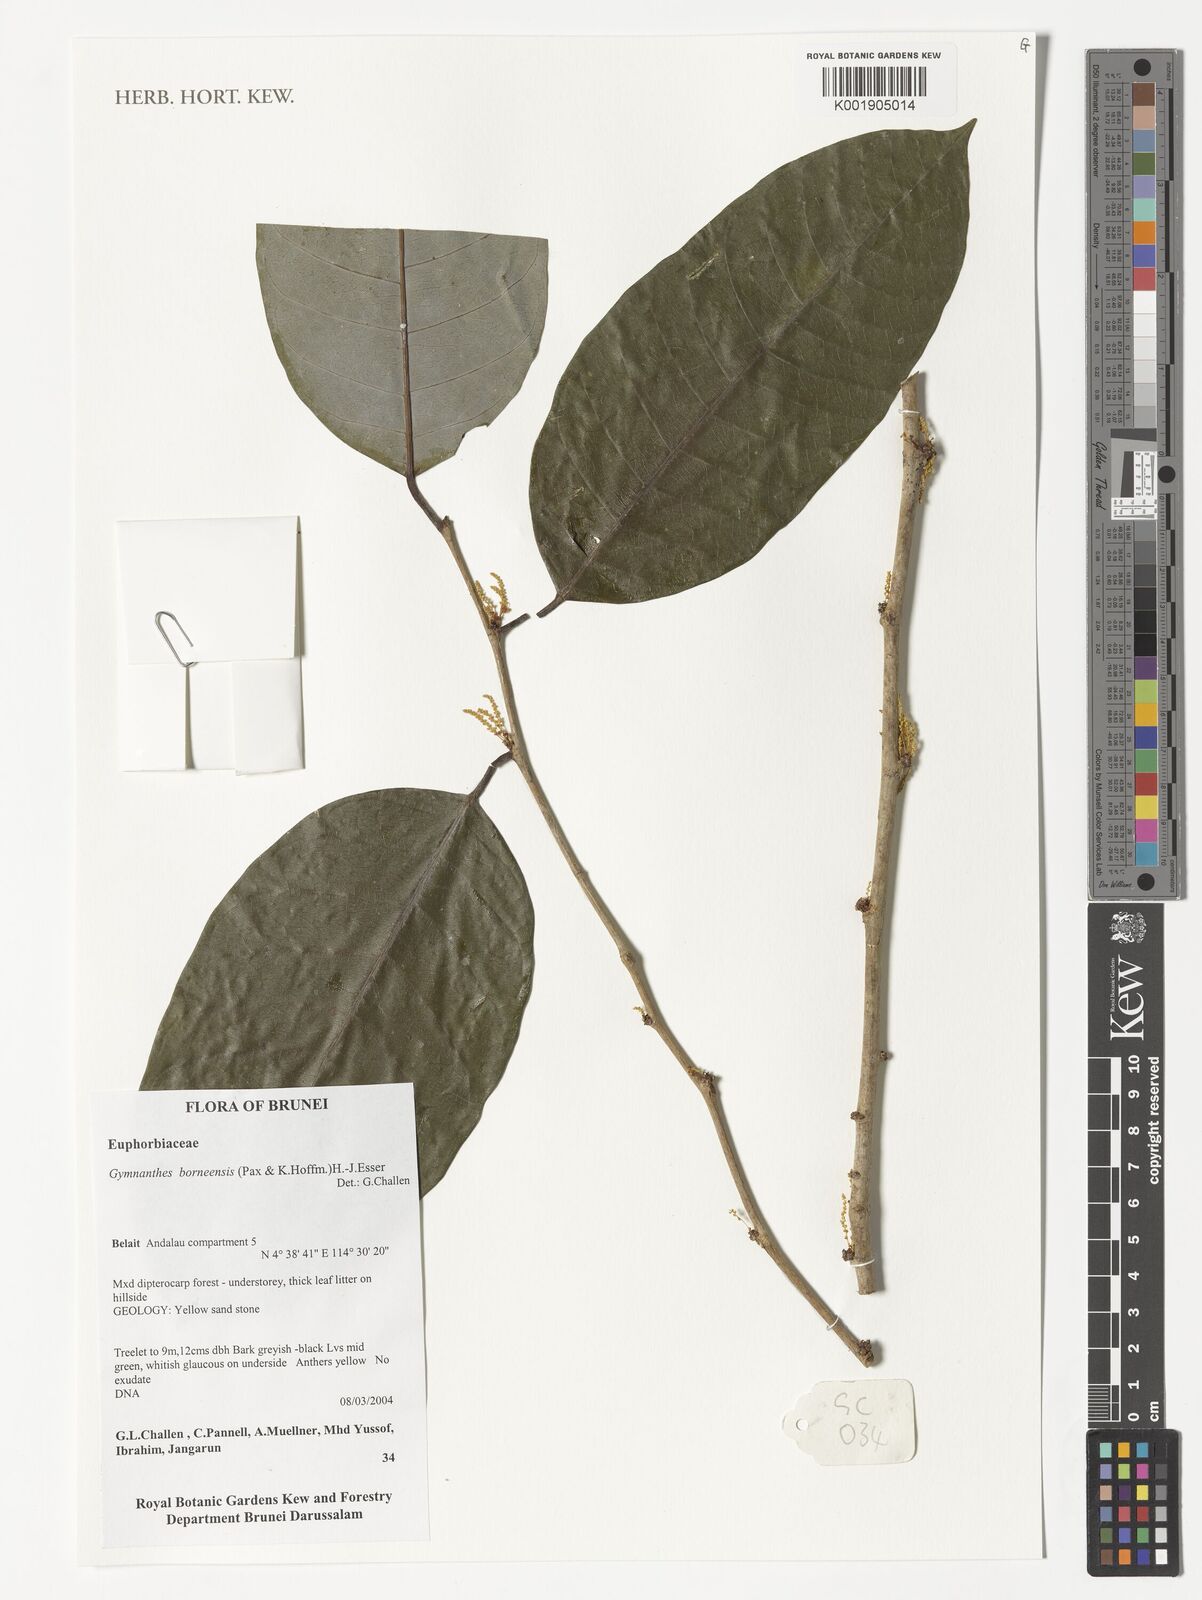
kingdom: Plantae
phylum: Tracheophyta
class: Magnoliopsida
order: Malpighiales
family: Euphorbiaceae
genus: Gymnanthes
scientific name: Gymnanthes borneensis
